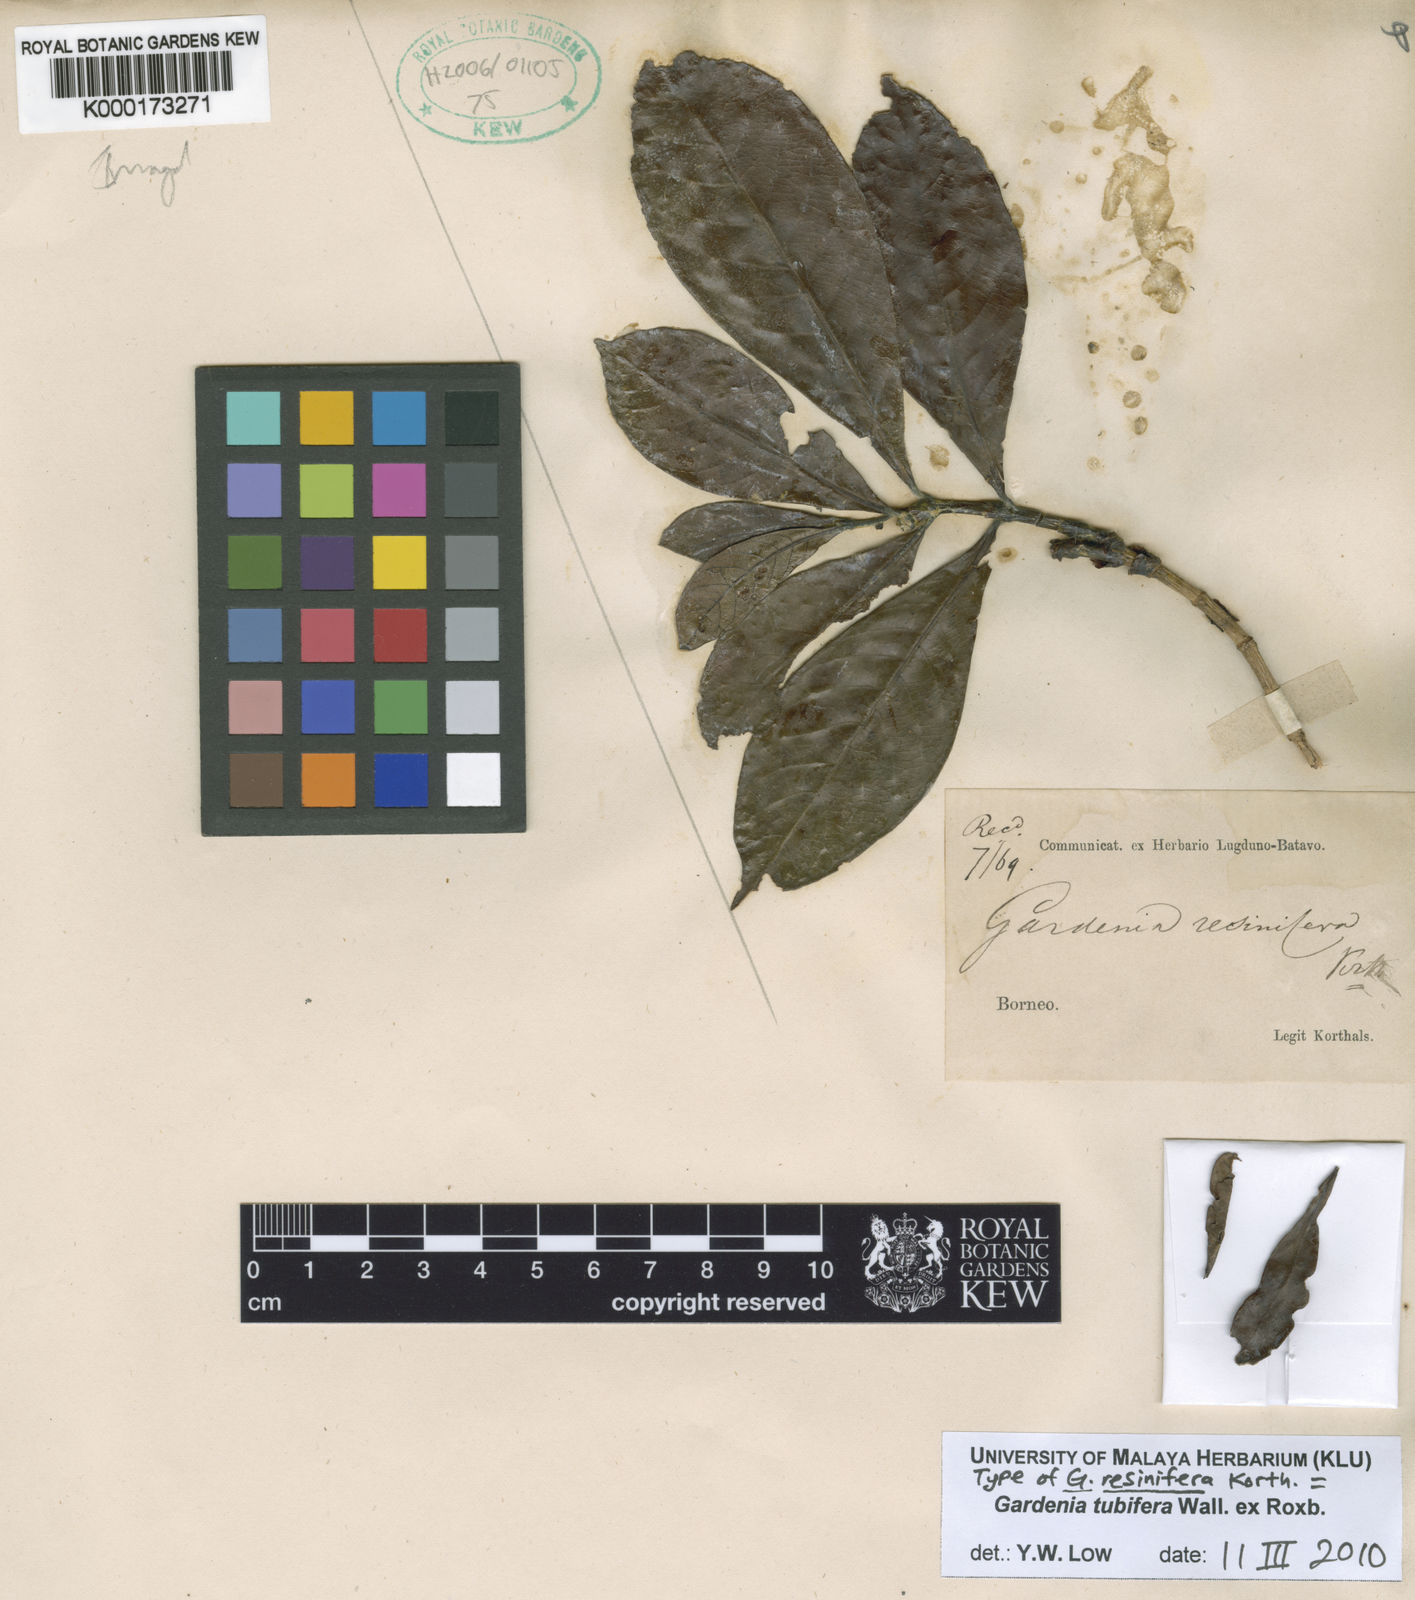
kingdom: Plantae
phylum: Tracheophyta
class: Magnoliopsida
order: Gentianales
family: Rubiaceae
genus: Gardenia
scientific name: Gardenia
